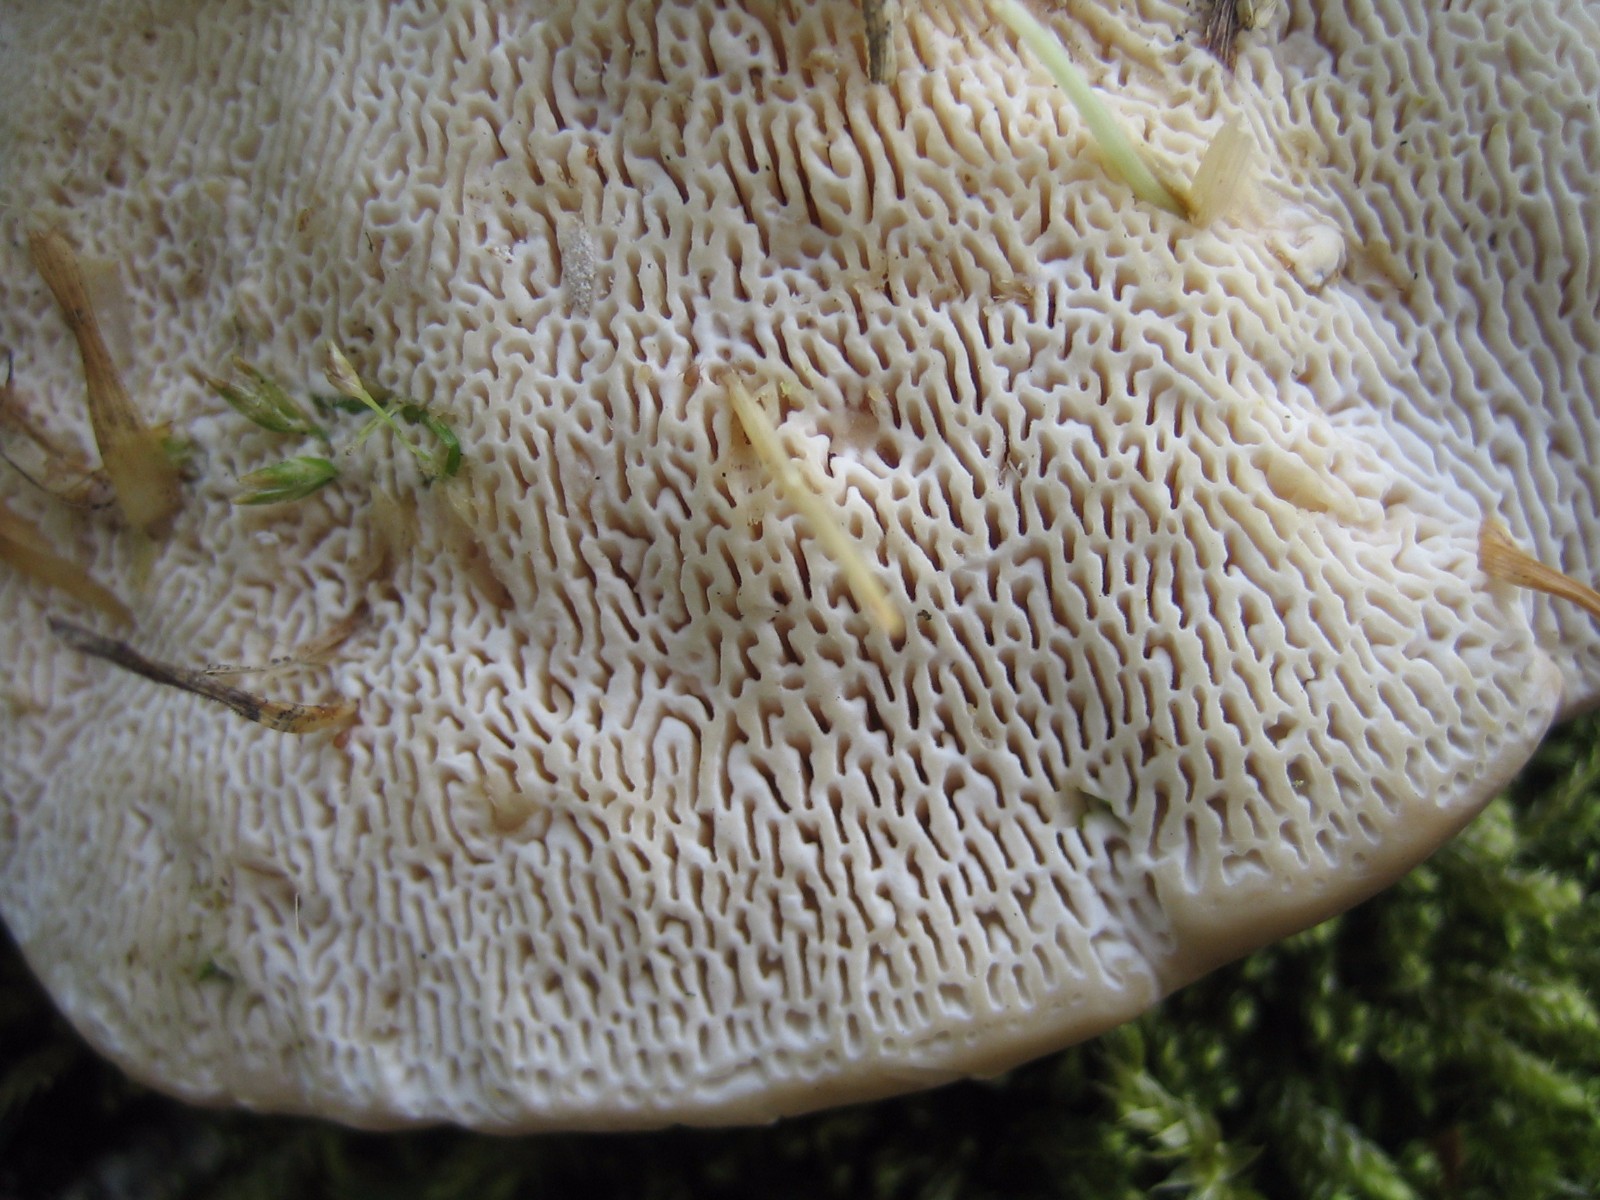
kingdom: Fungi
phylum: Basidiomycota
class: Agaricomycetes
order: Polyporales
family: Polyporaceae
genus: Trametes
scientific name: Trametes gibbosa
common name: puklet læderporesvamp
